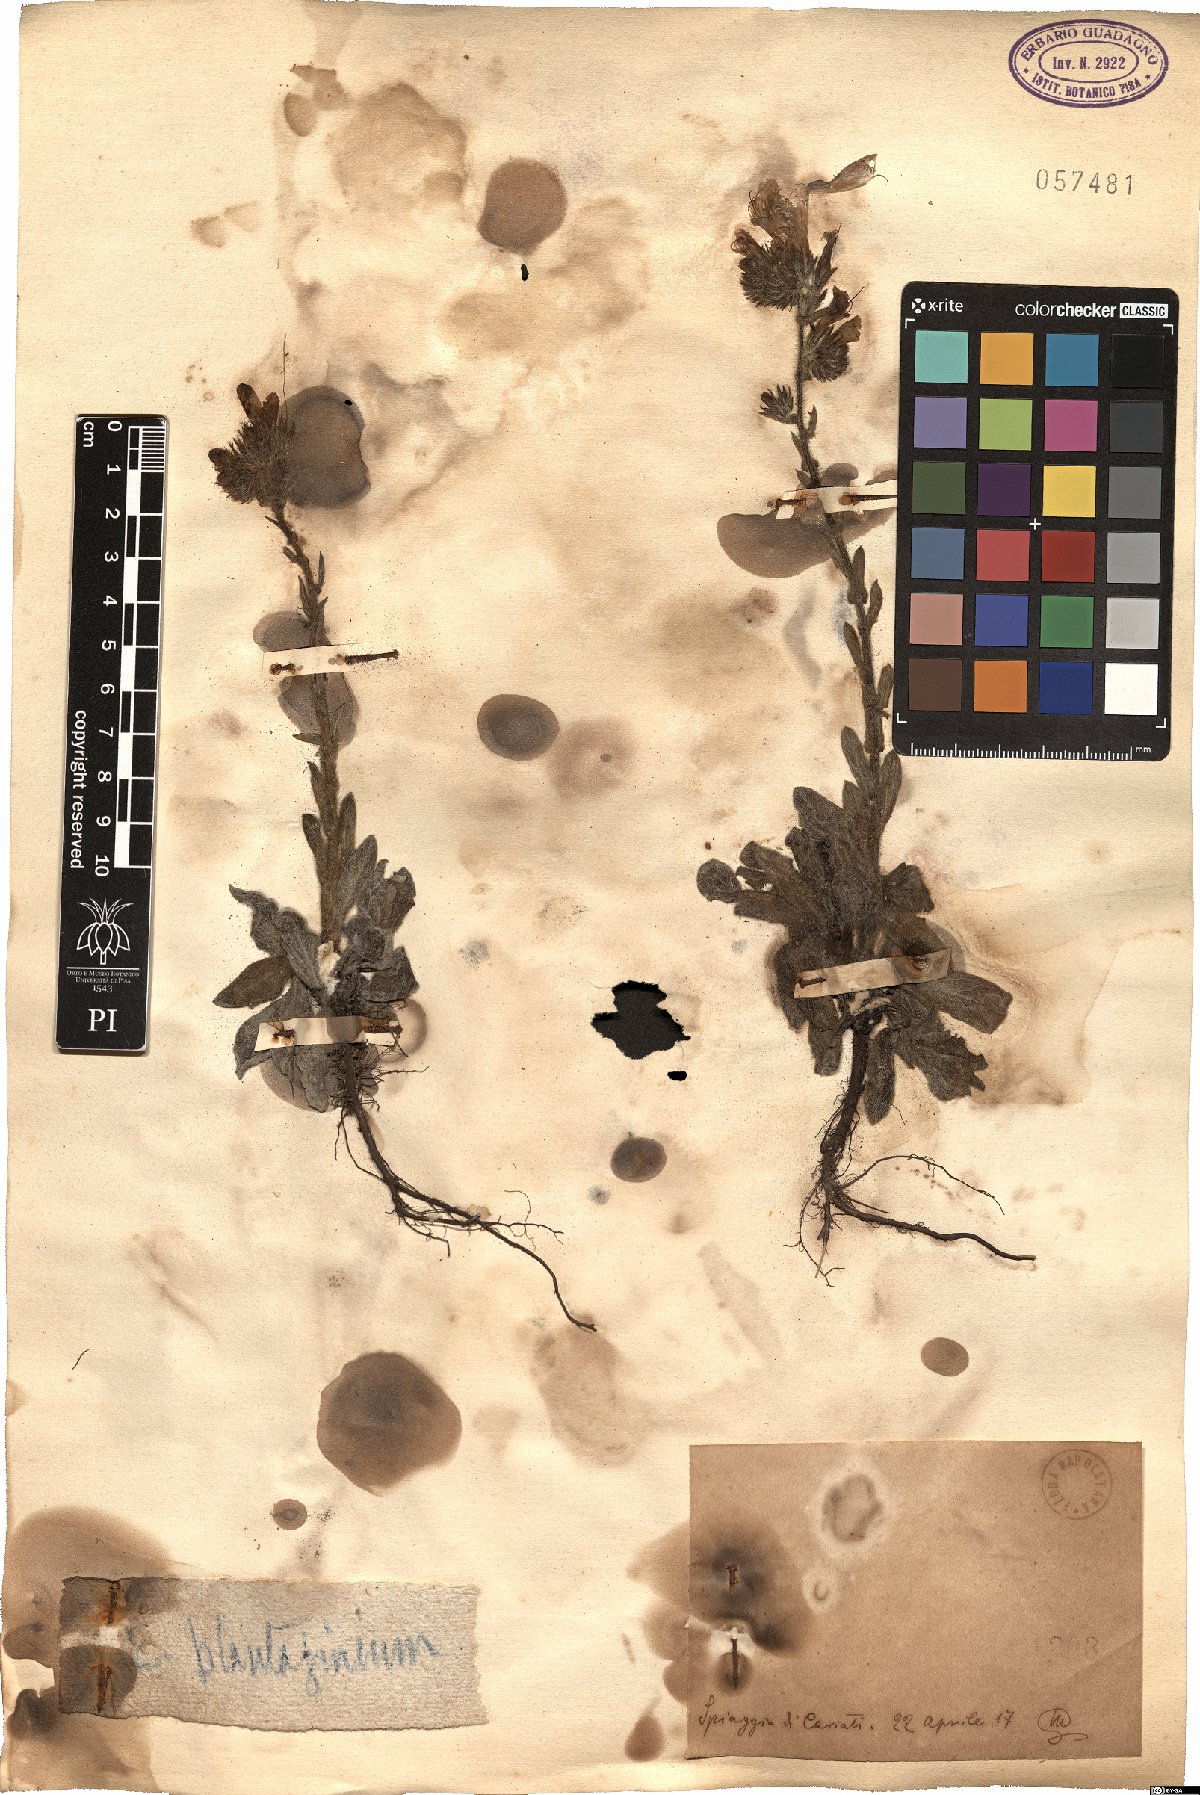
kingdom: Plantae
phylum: Tracheophyta
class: Magnoliopsida
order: Boraginales
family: Boraginaceae
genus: Echium
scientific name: Echium plantagineum
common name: Purple viper's-bugloss
